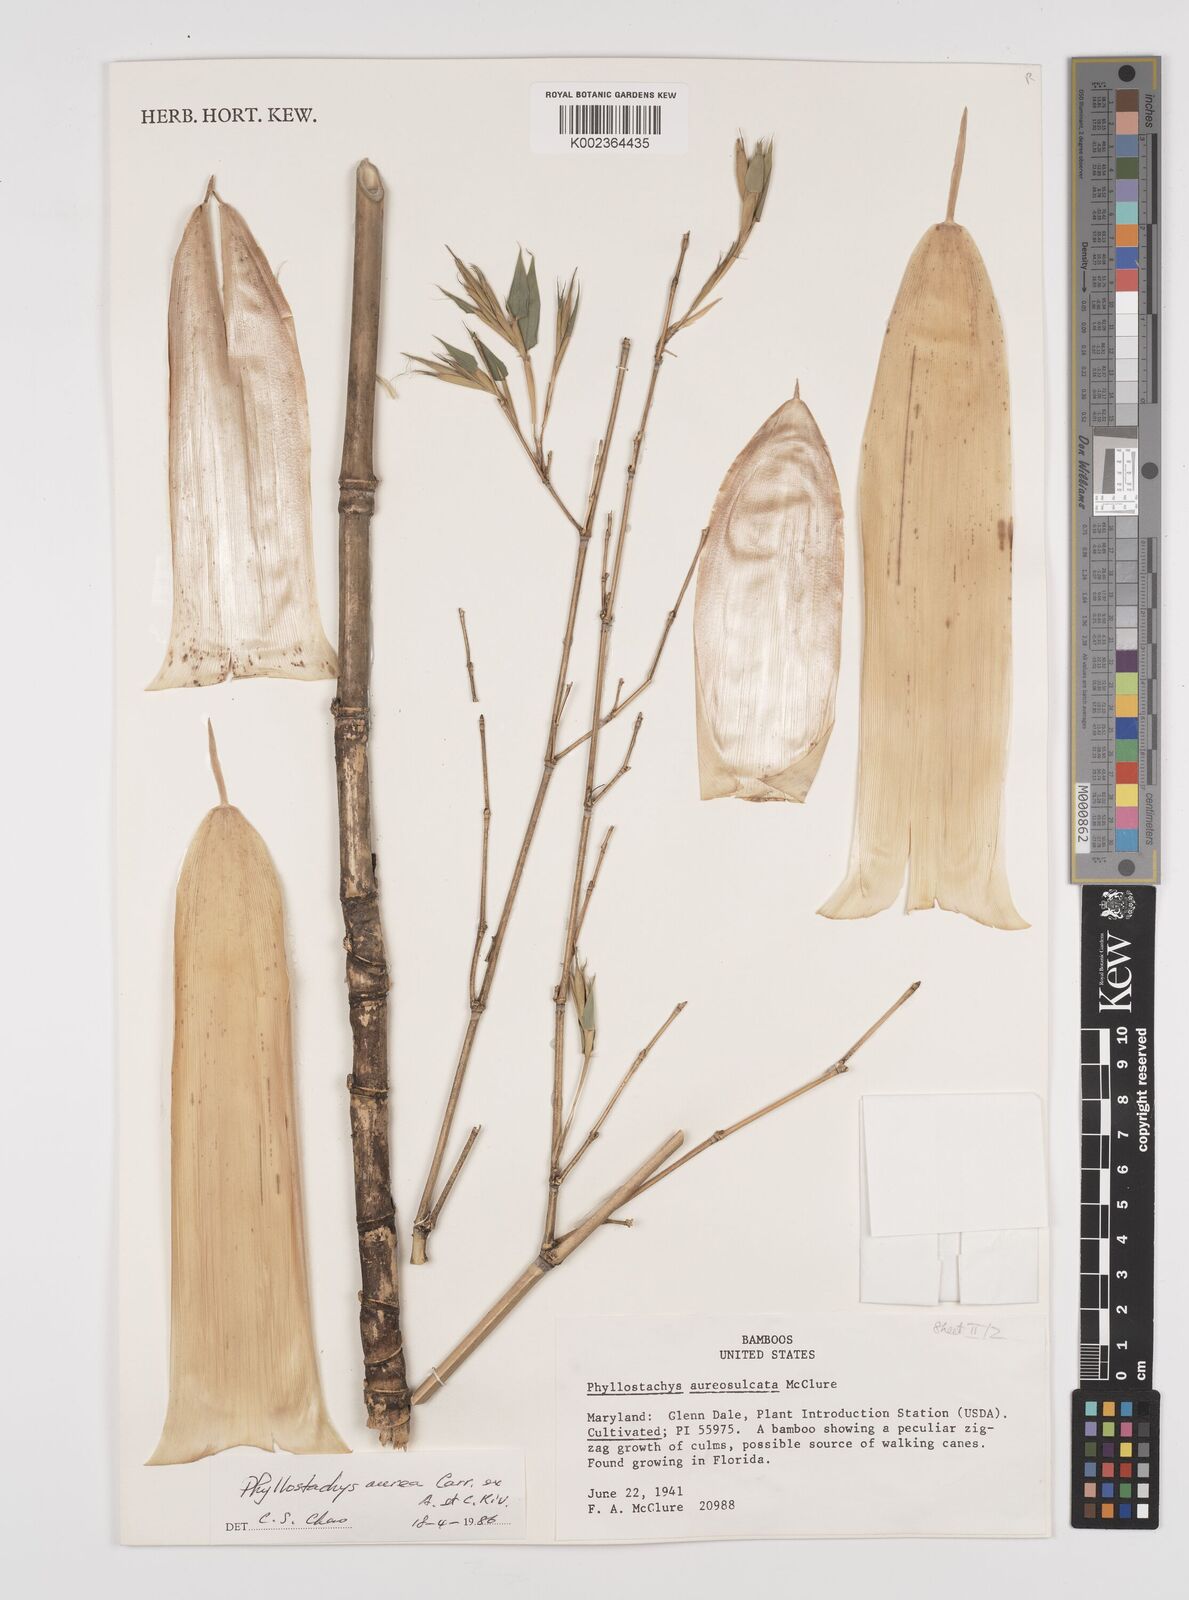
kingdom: Plantae
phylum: Tracheophyta
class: Liliopsida
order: Poales
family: Poaceae
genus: Phyllostachys
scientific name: Phyllostachys aurea
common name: Golden bamboo
